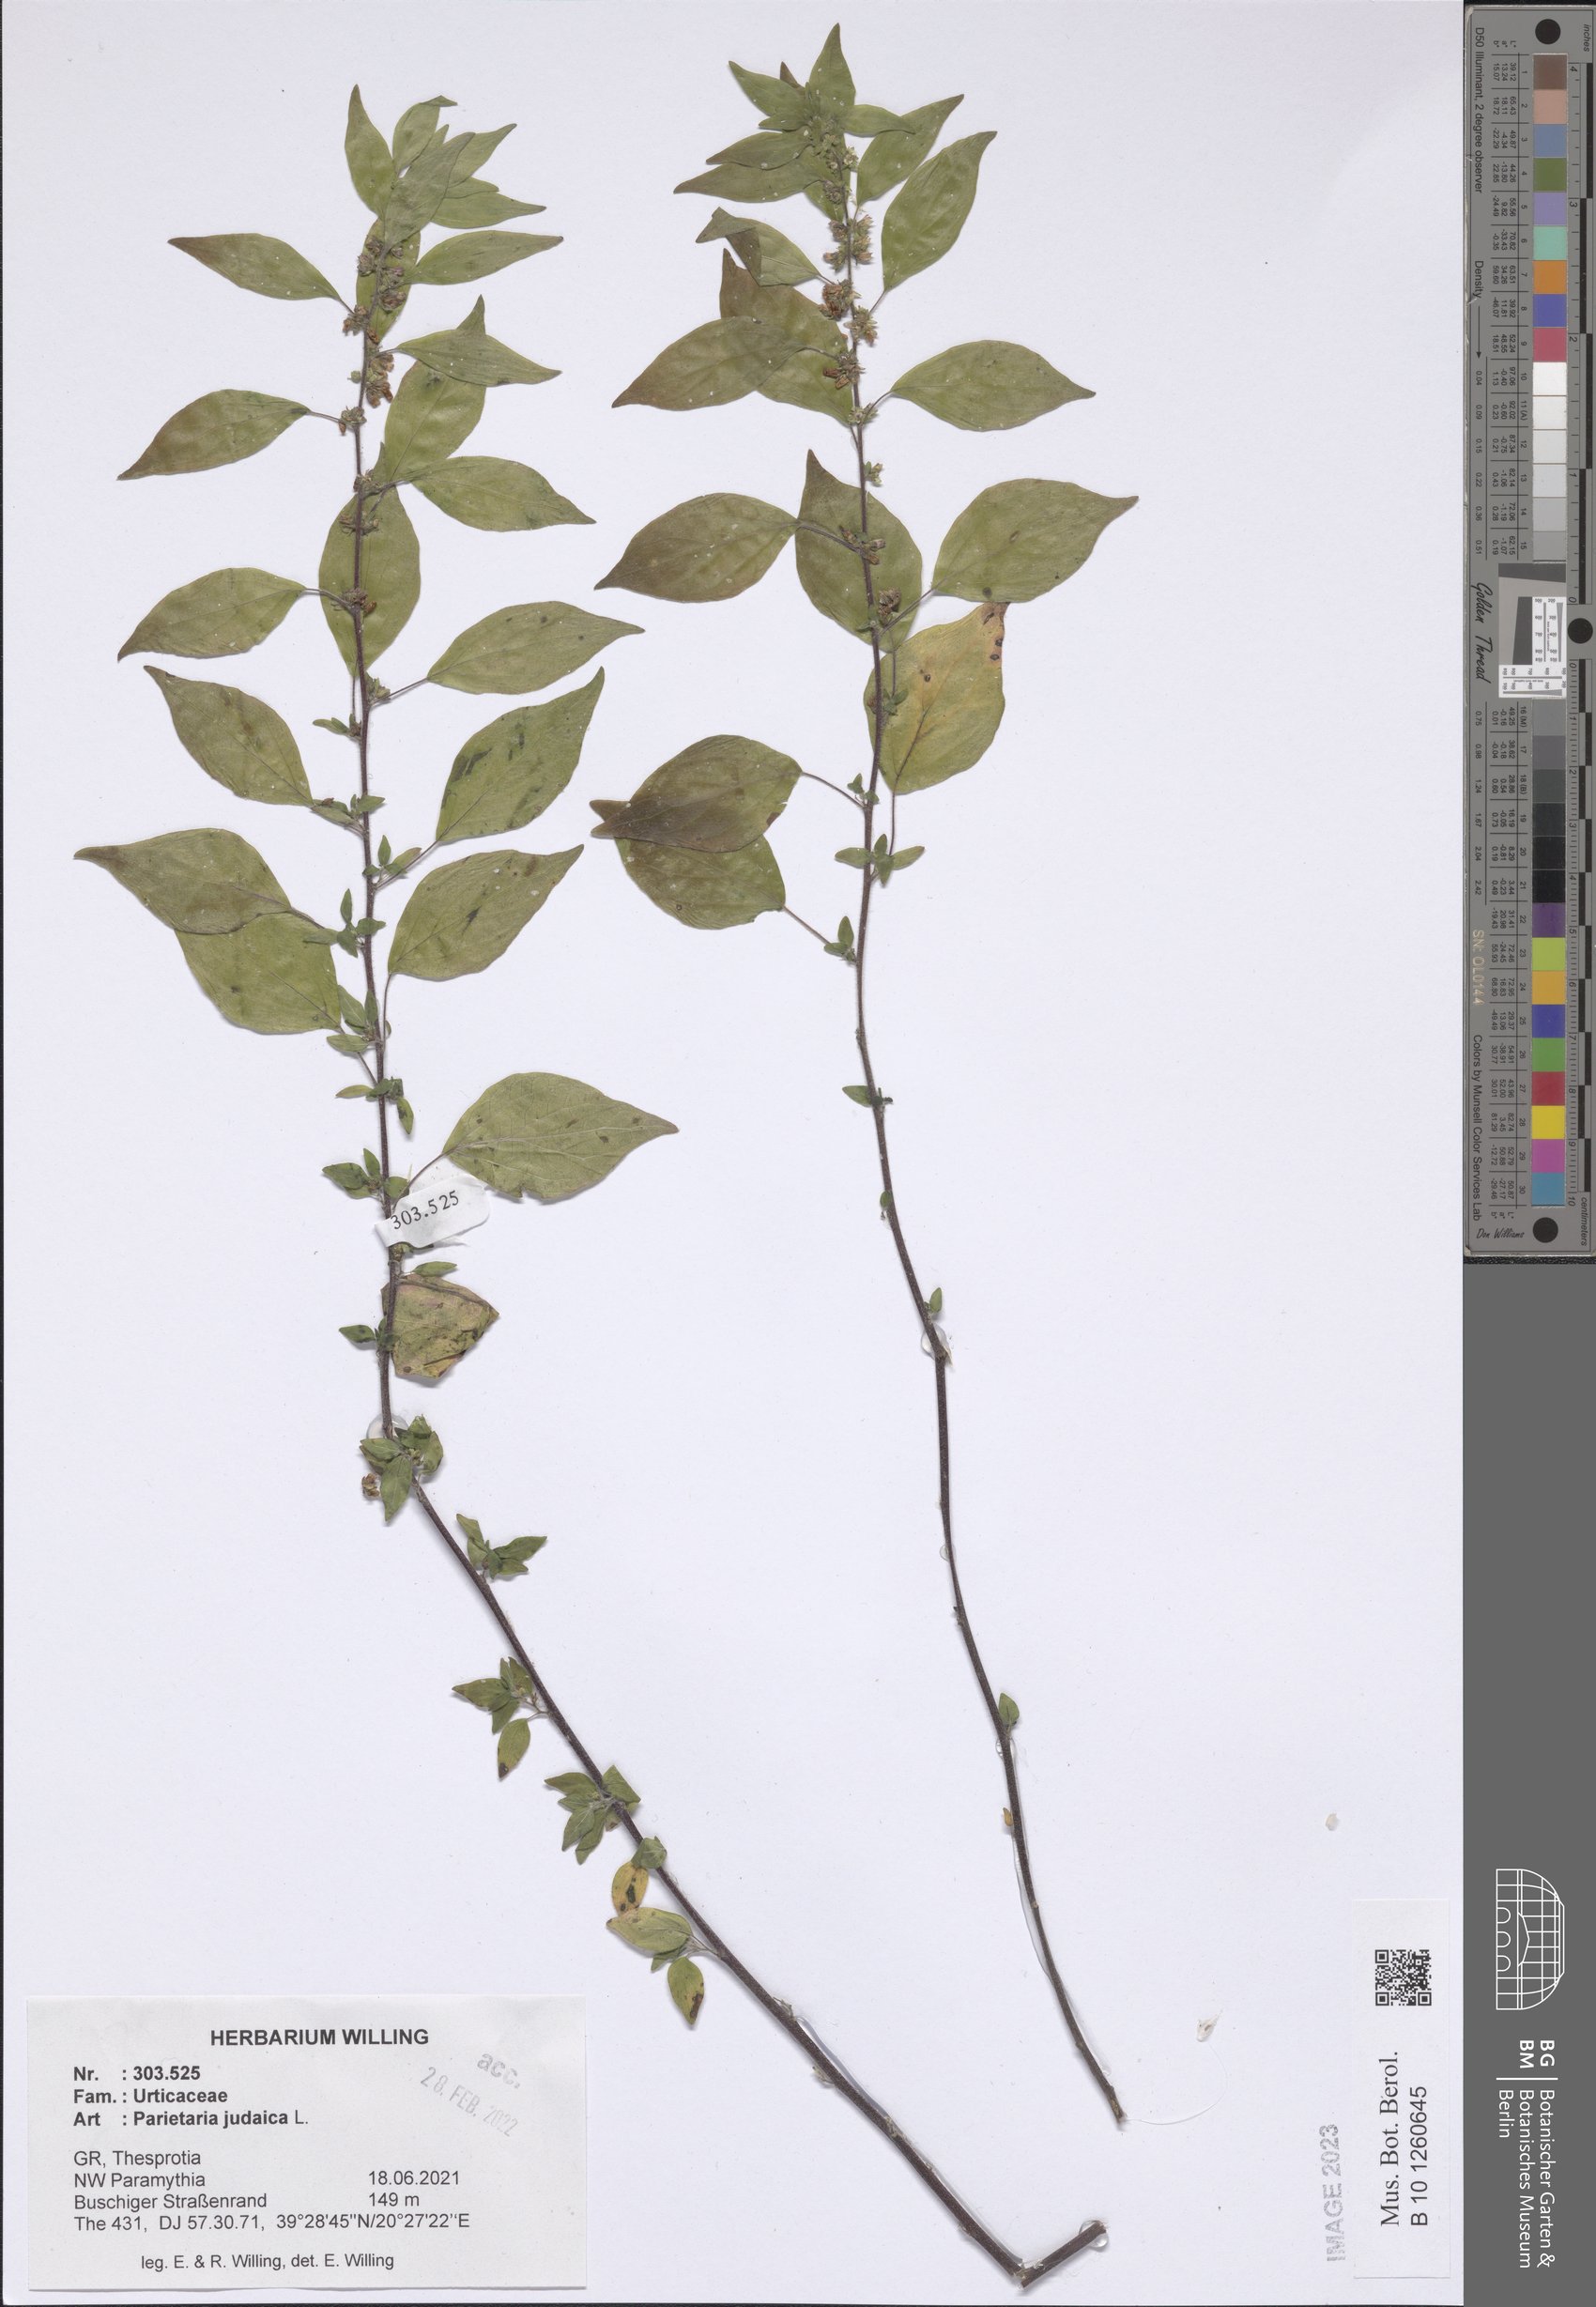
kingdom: Plantae
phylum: Tracheophyta
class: Magnoliopsida
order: Rosales
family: Urticaceae
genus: Parietaria
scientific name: Parietaria judaica
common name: Pellitory-of-the-wall
